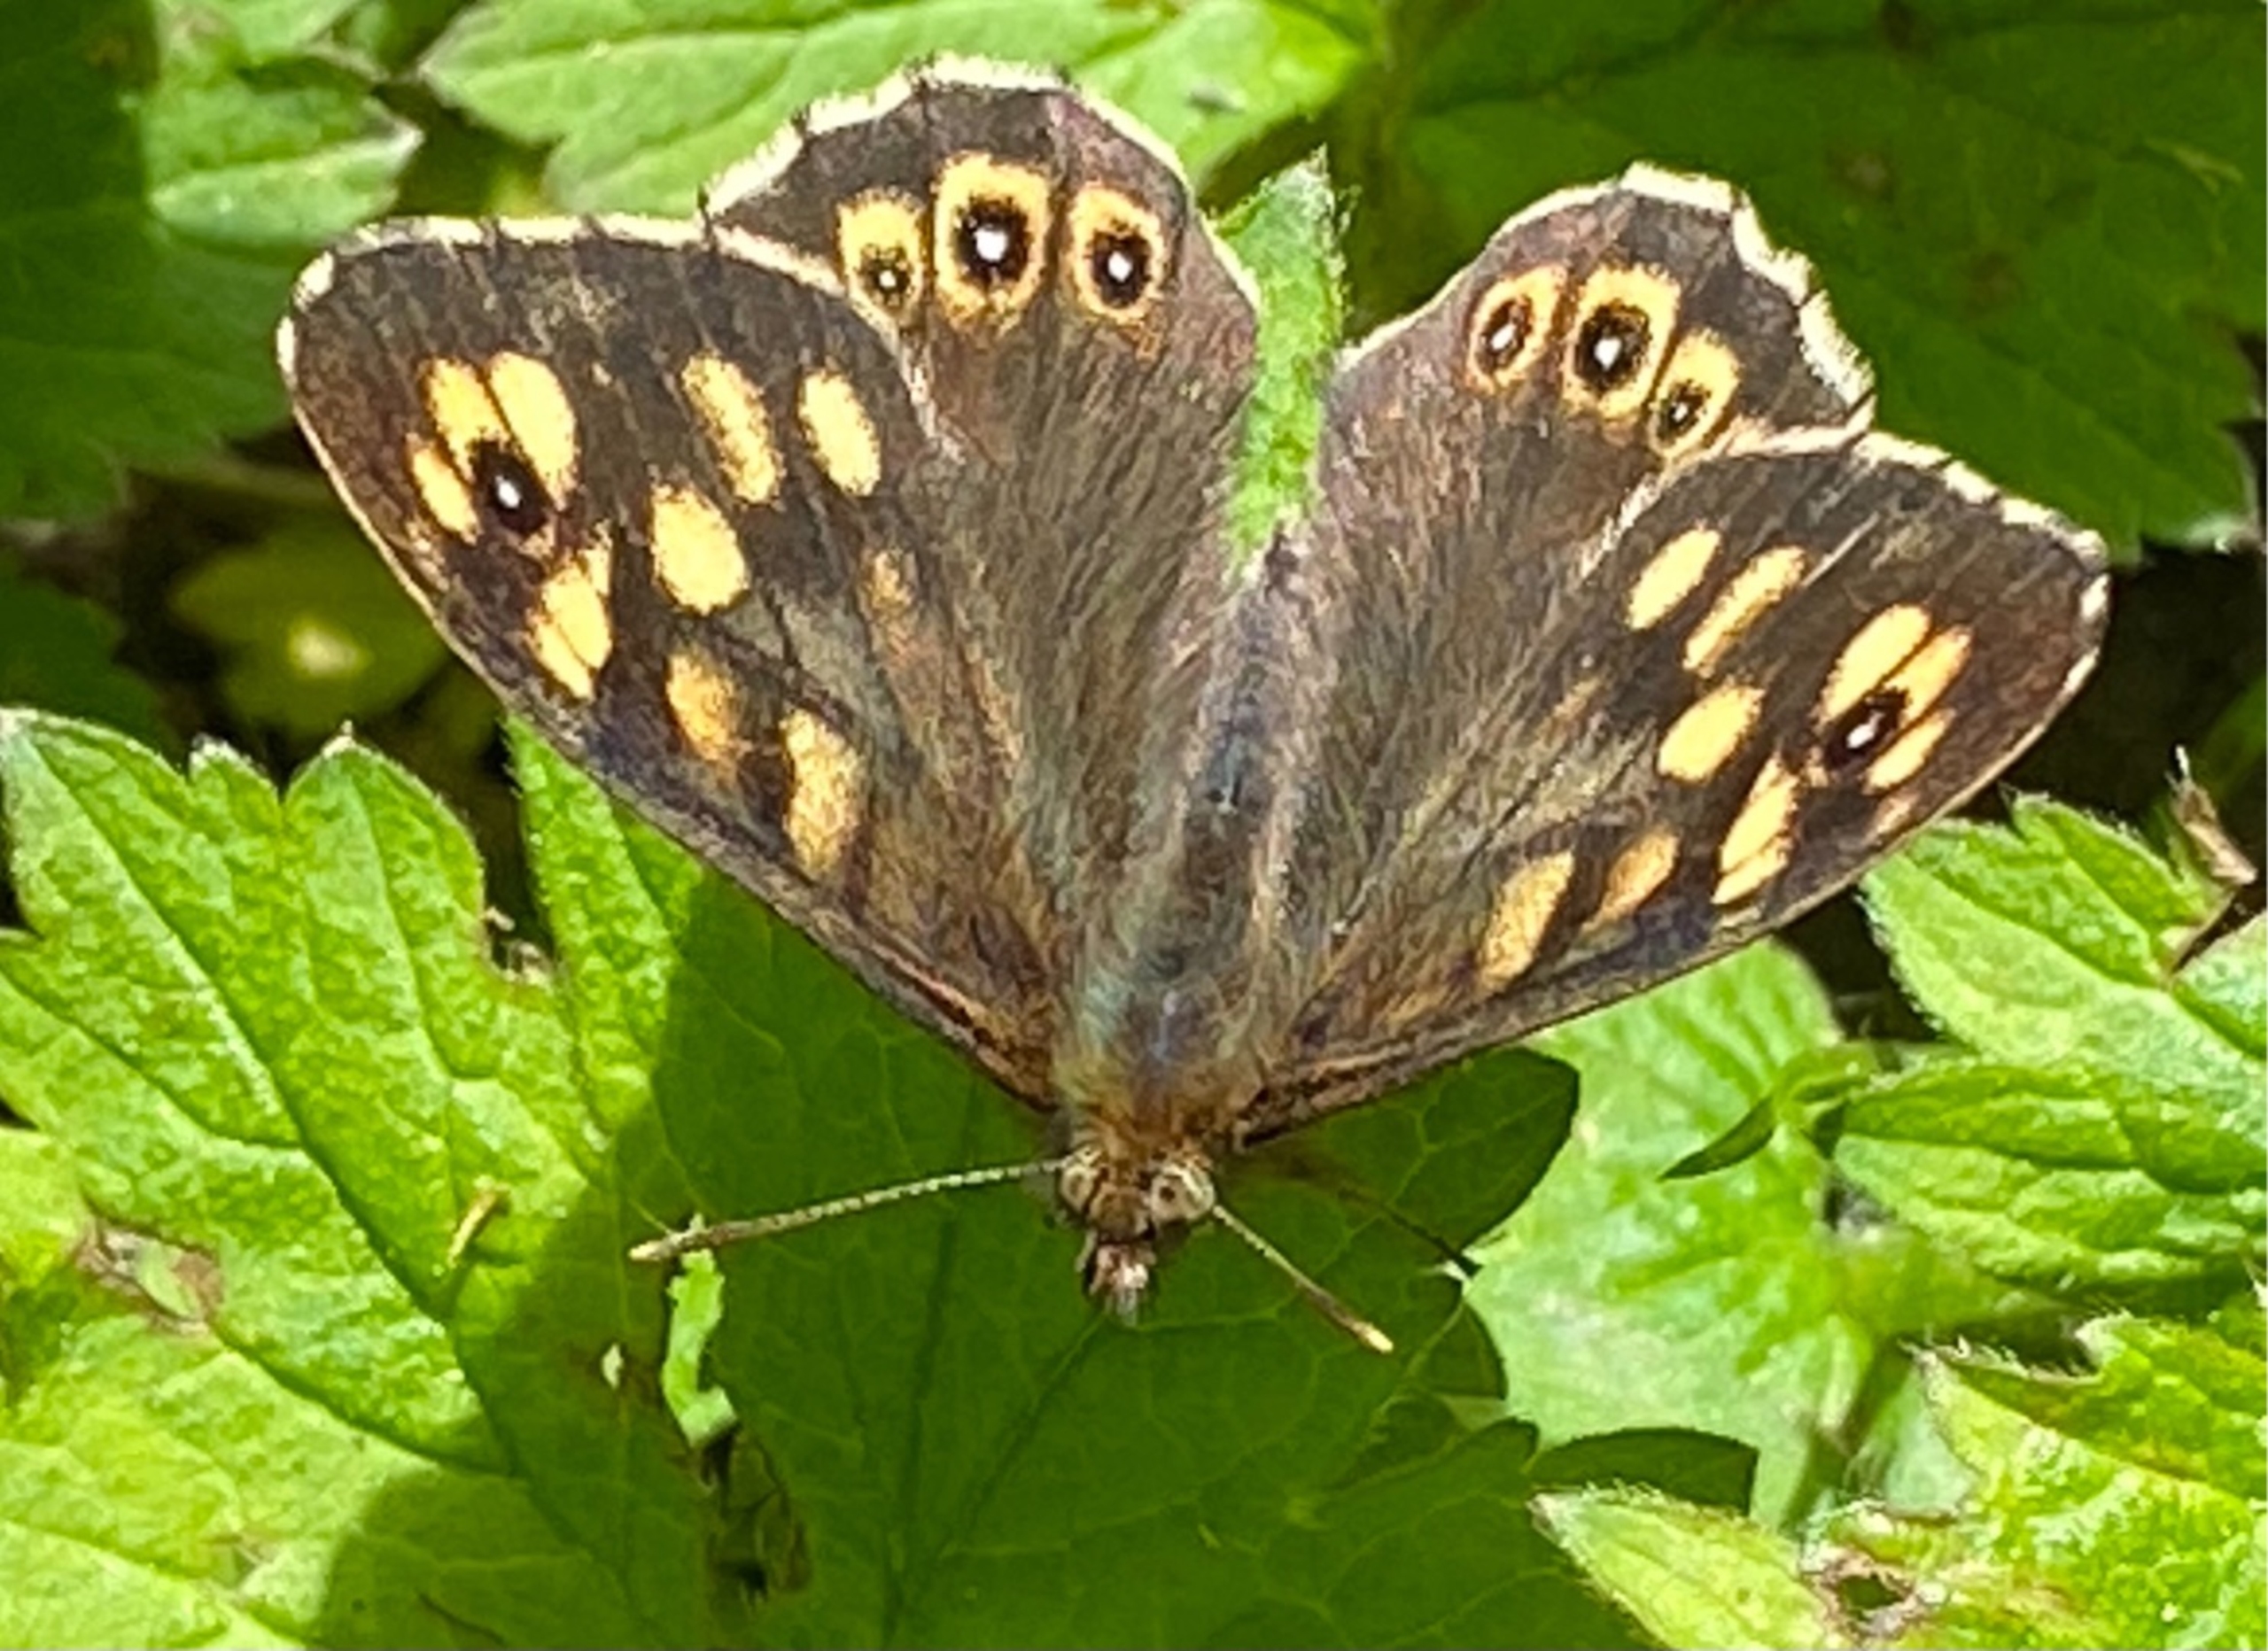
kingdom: Animalia
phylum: Arthropoda
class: Insecta
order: Lepidoptera
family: Nymphalidae
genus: Pararge
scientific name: Pararge aegeria
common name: Skovrandøje
